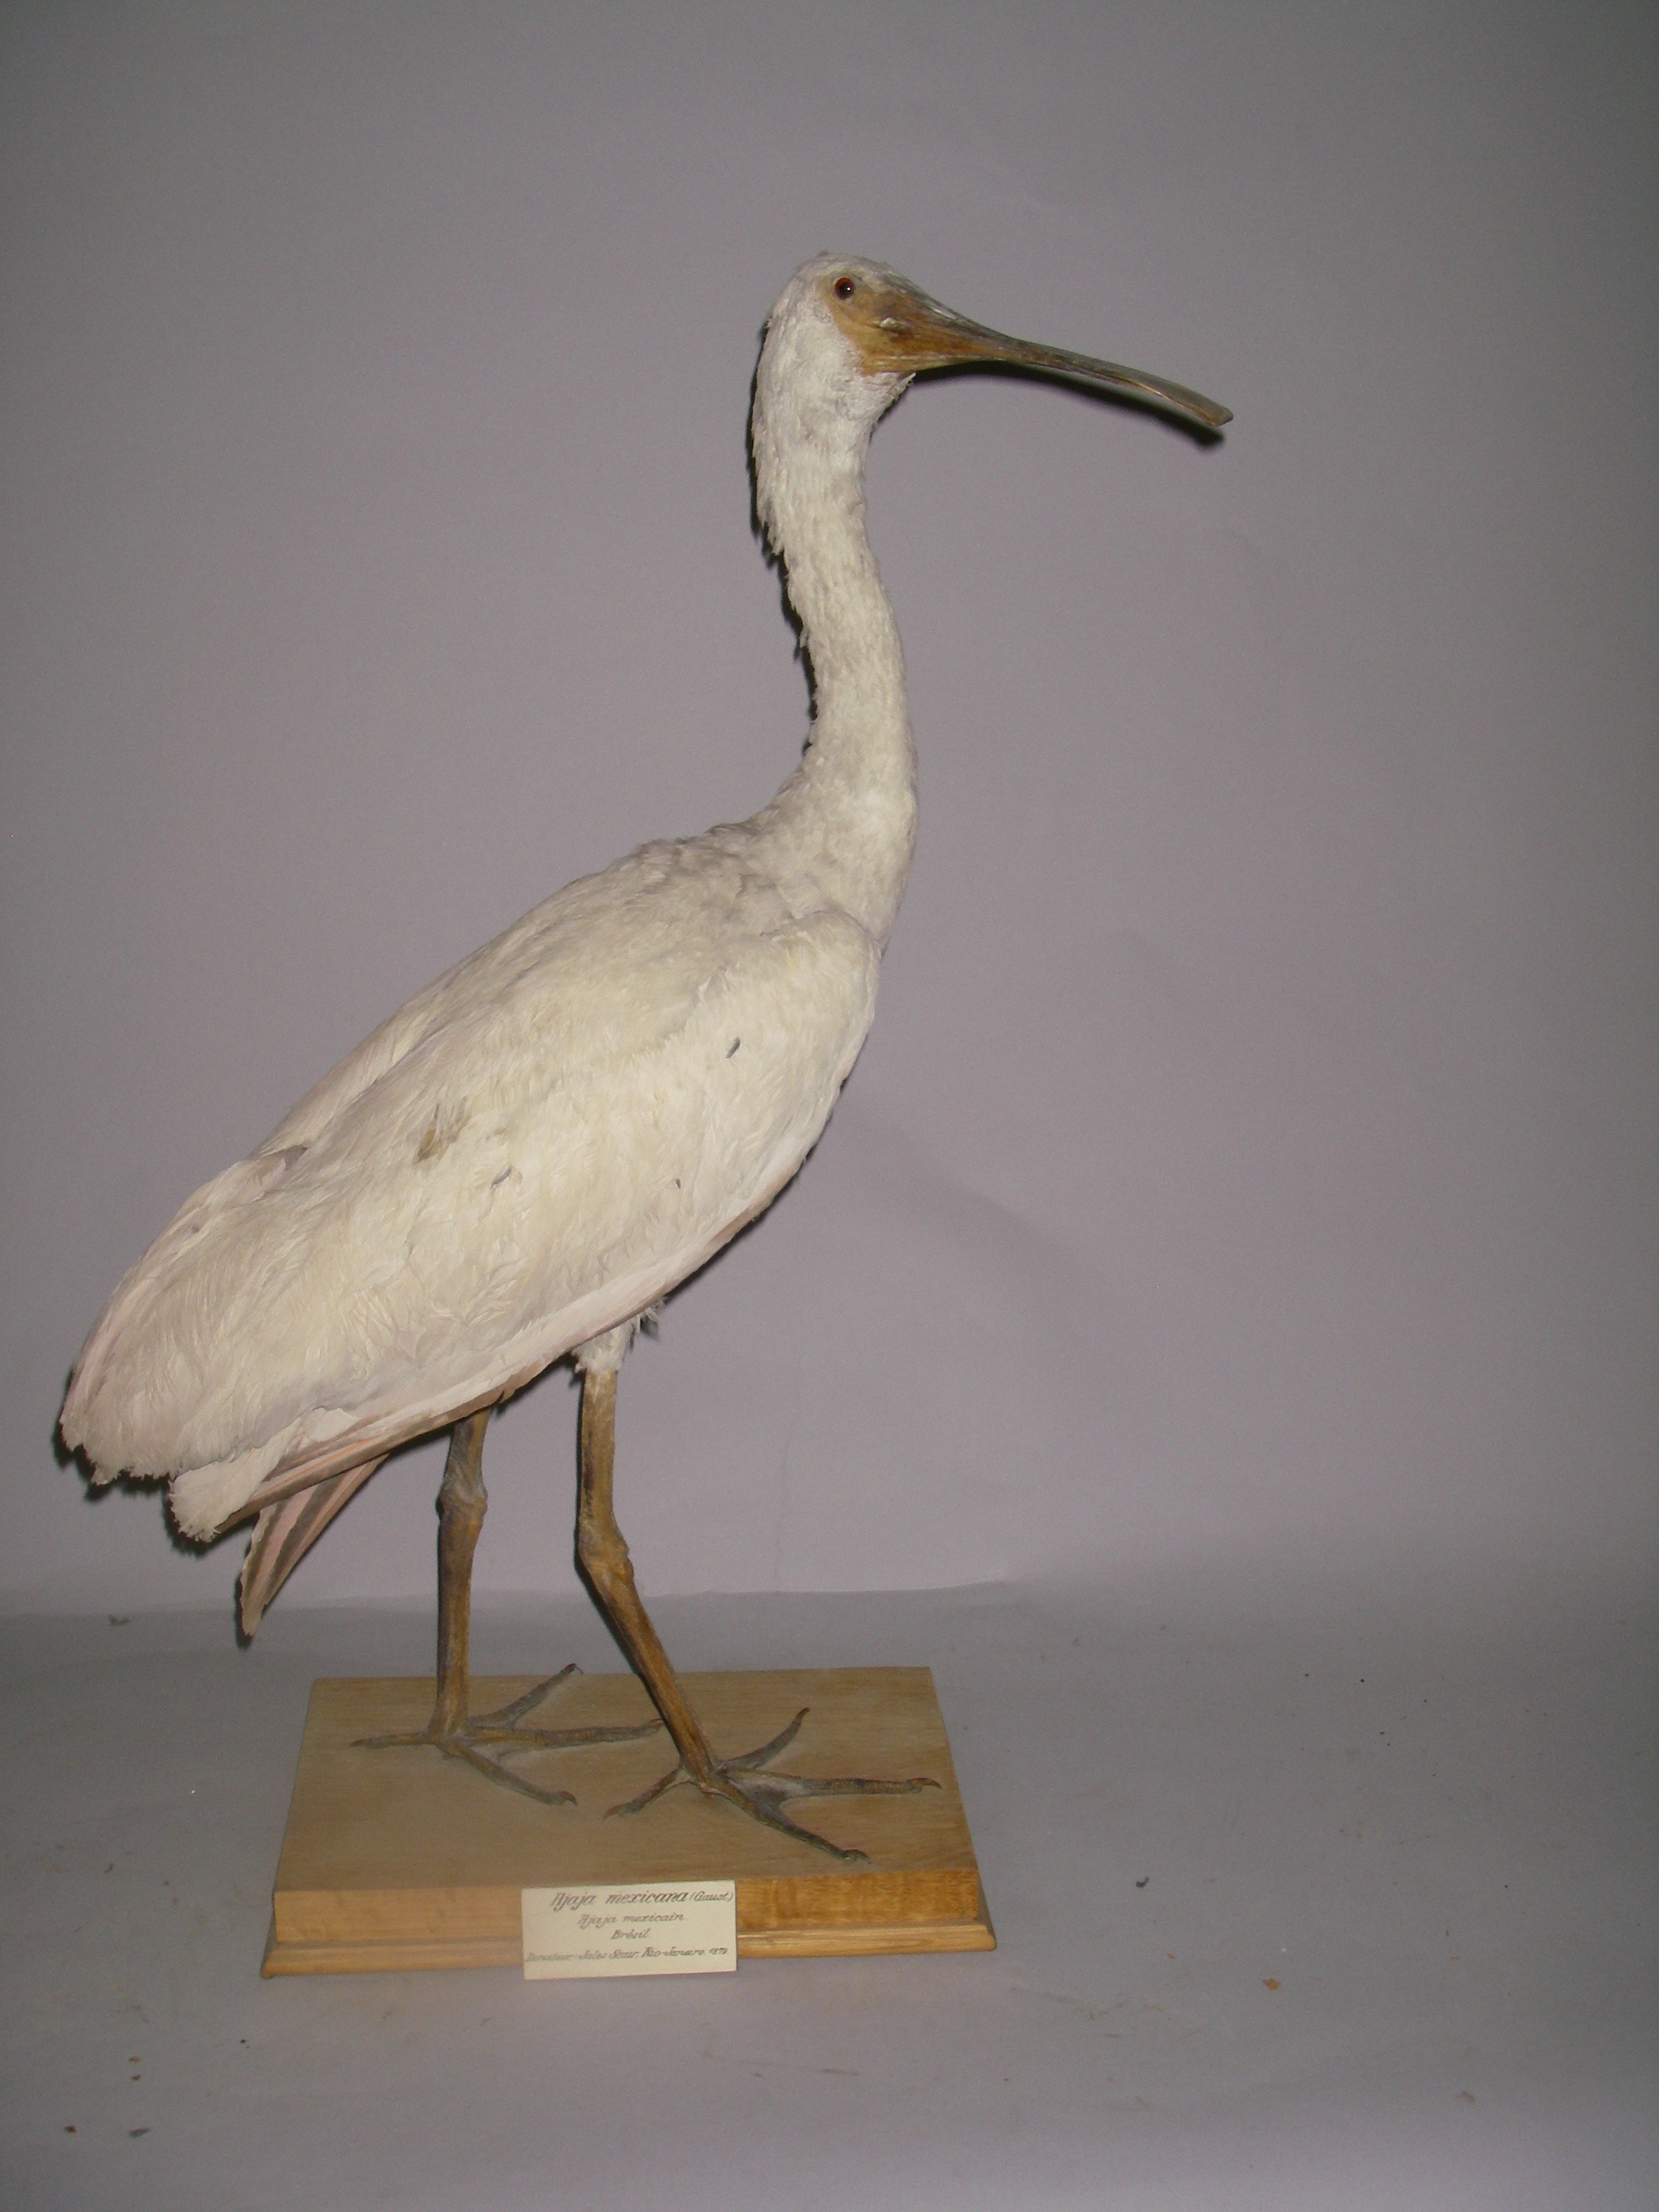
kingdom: Animalia
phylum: Chordata
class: Aves
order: Pelecaniformes
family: Threskiornithidae
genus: Platalea
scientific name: Platalea ajaja
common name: Roseate spoonbill
